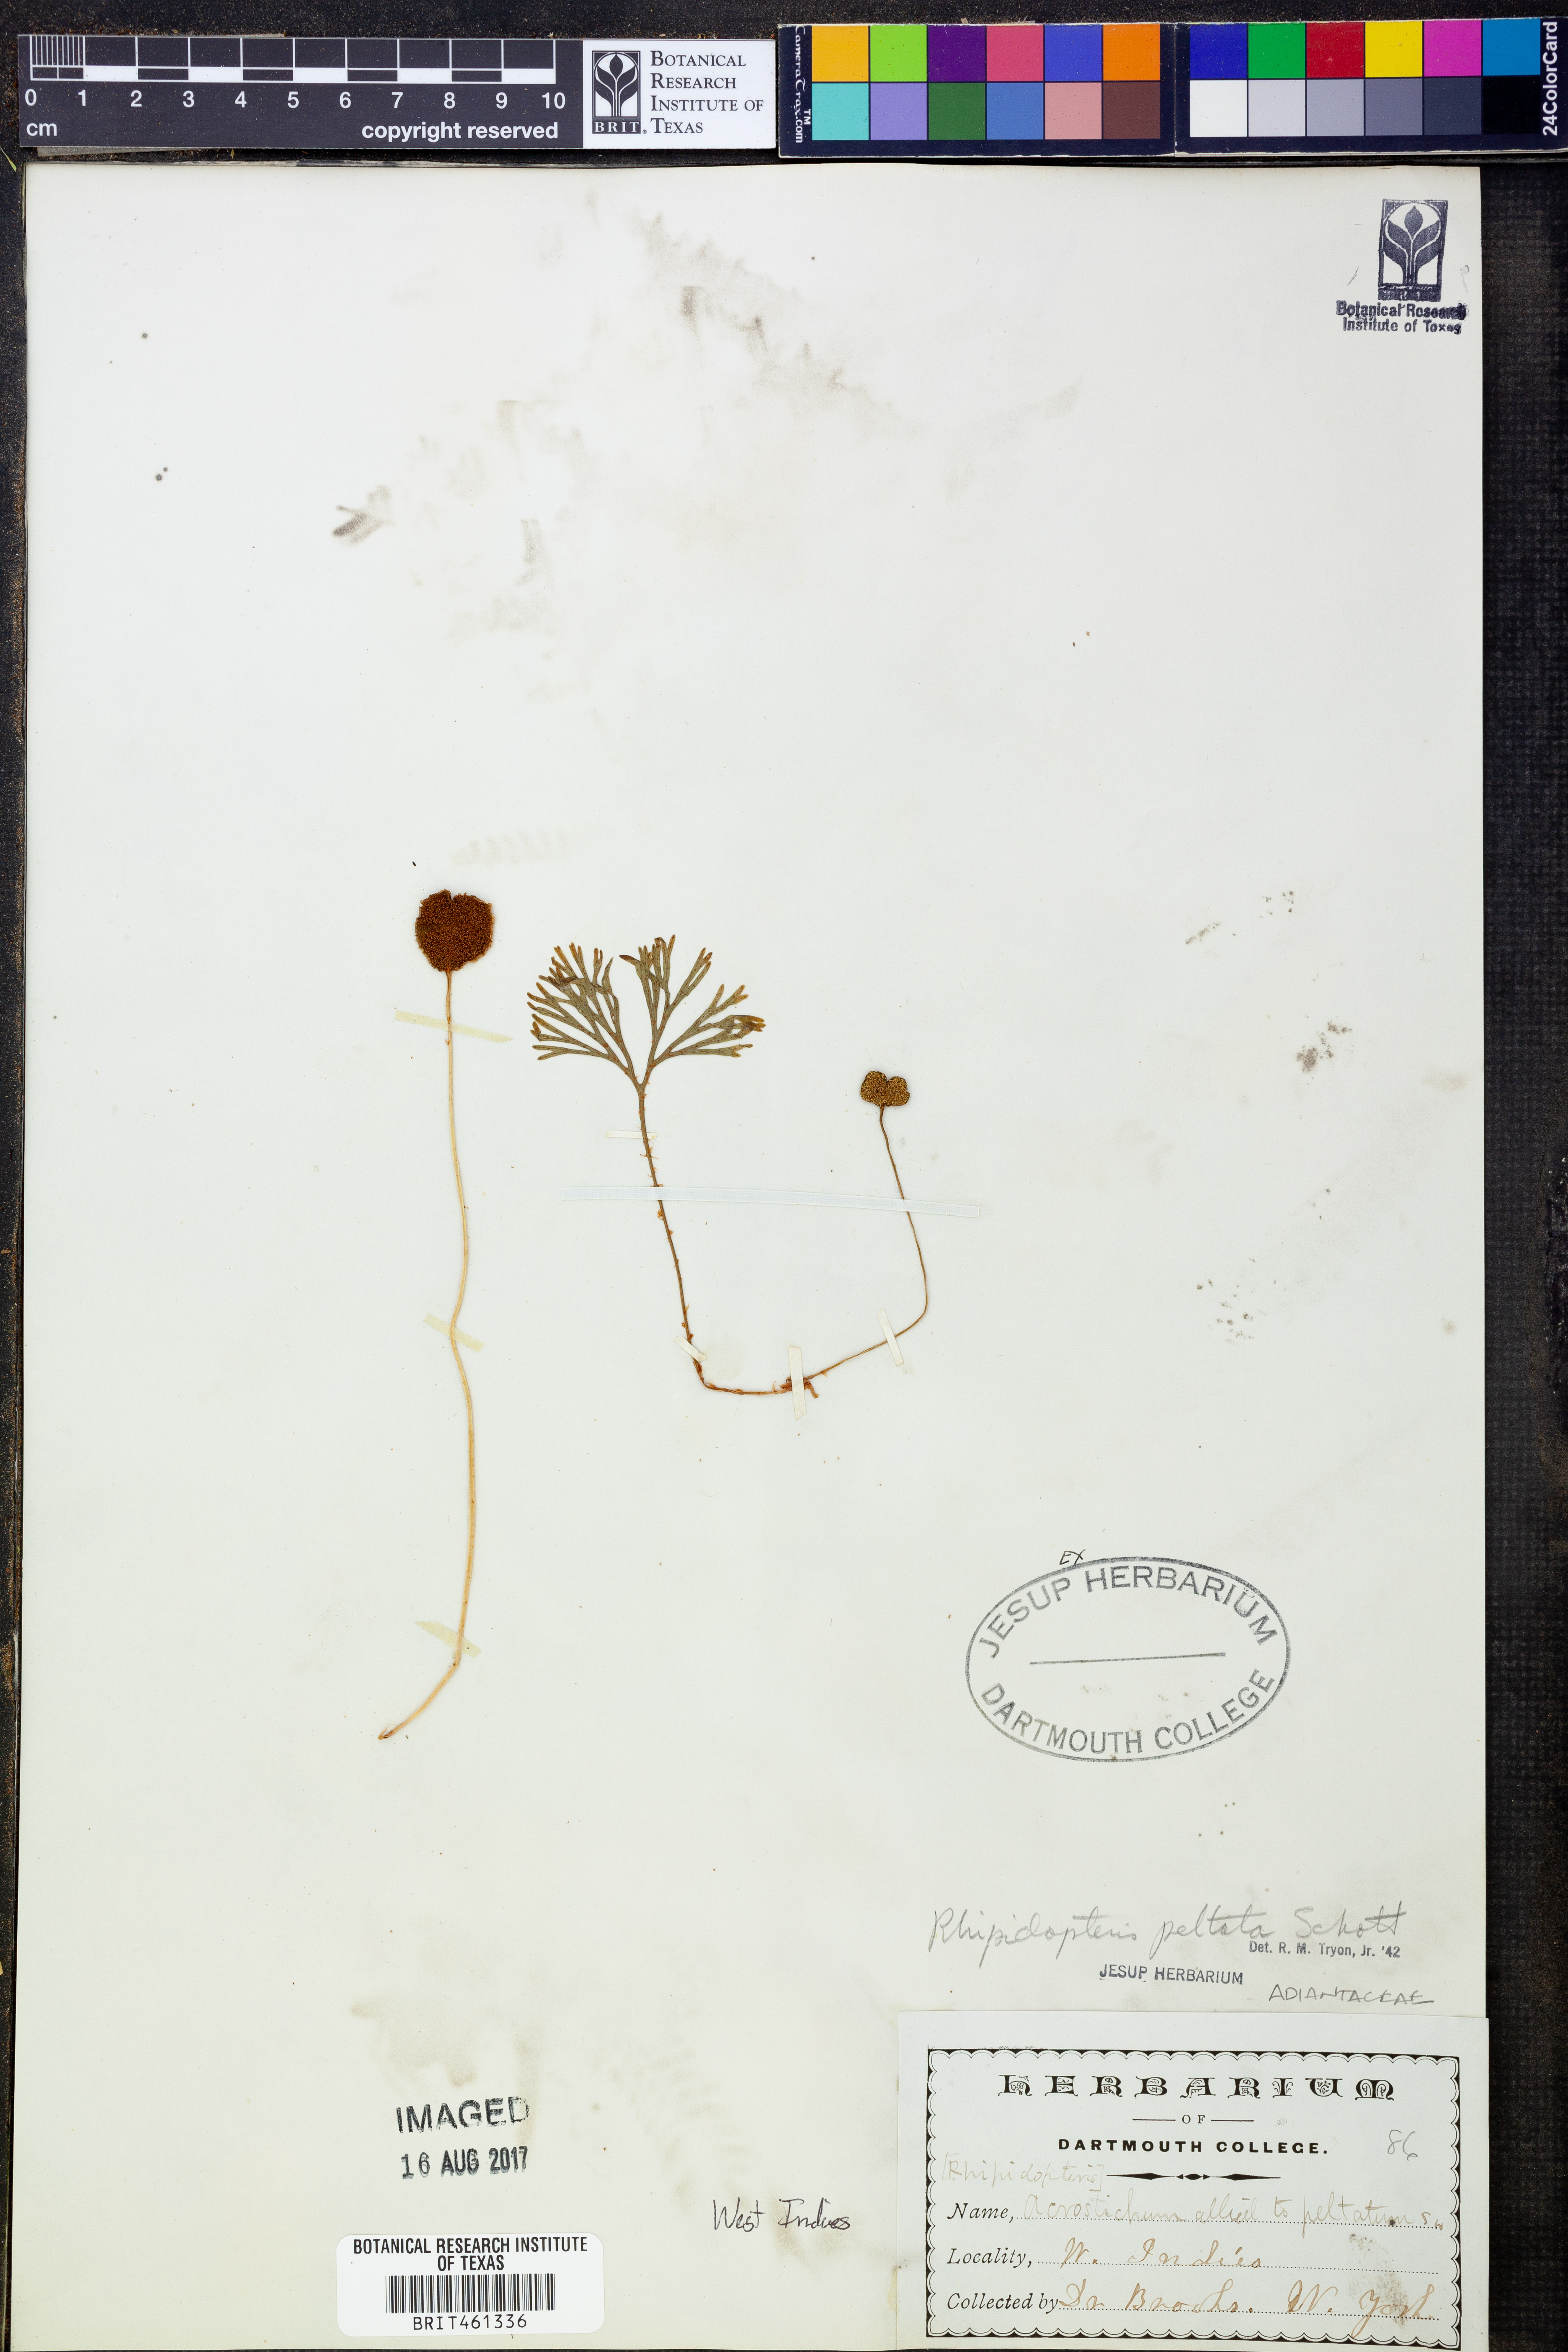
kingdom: Plantae
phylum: Tracheophyta
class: Polypodiopsida
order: Polypodiales
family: Dryopteridaceae
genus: Elaphoglossum
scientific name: Elaphoglossum peltatum
